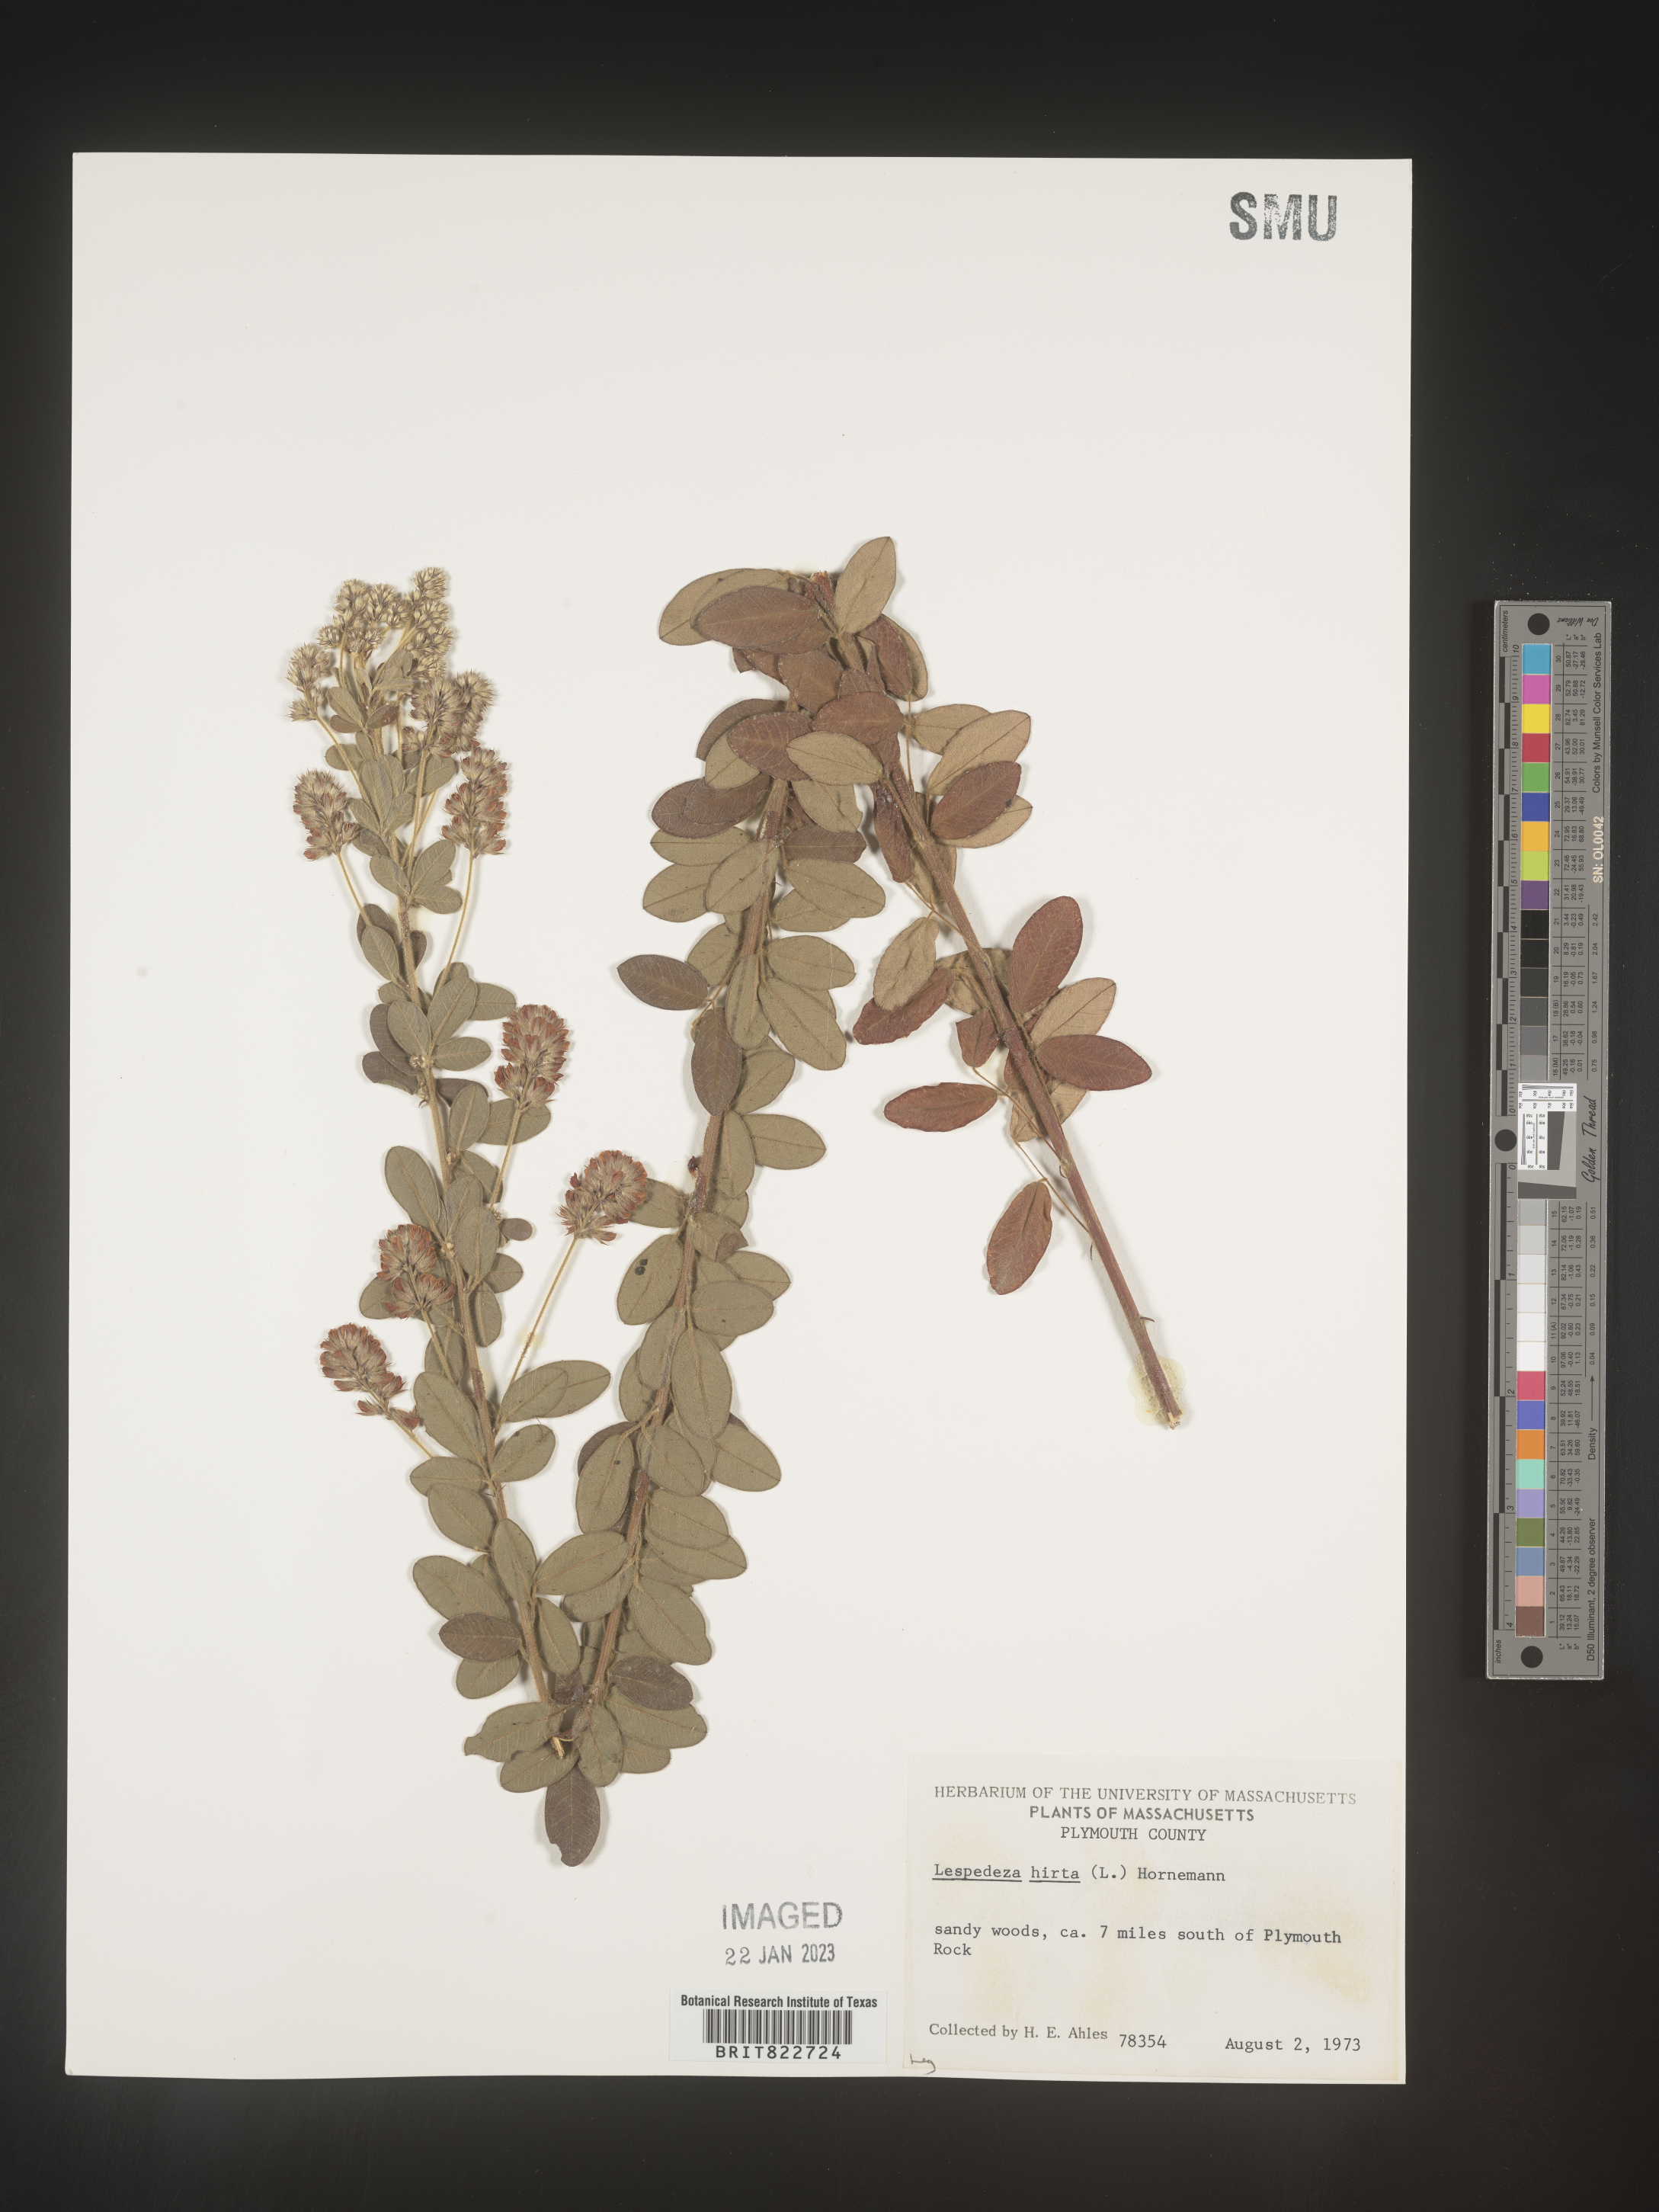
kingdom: Plantae
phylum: Tracheophyta
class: Magnoliopsida
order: Fabales
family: Fabaceae
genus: Lespedeza
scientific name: Lespedeza hirta
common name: Hairy lespedeza
